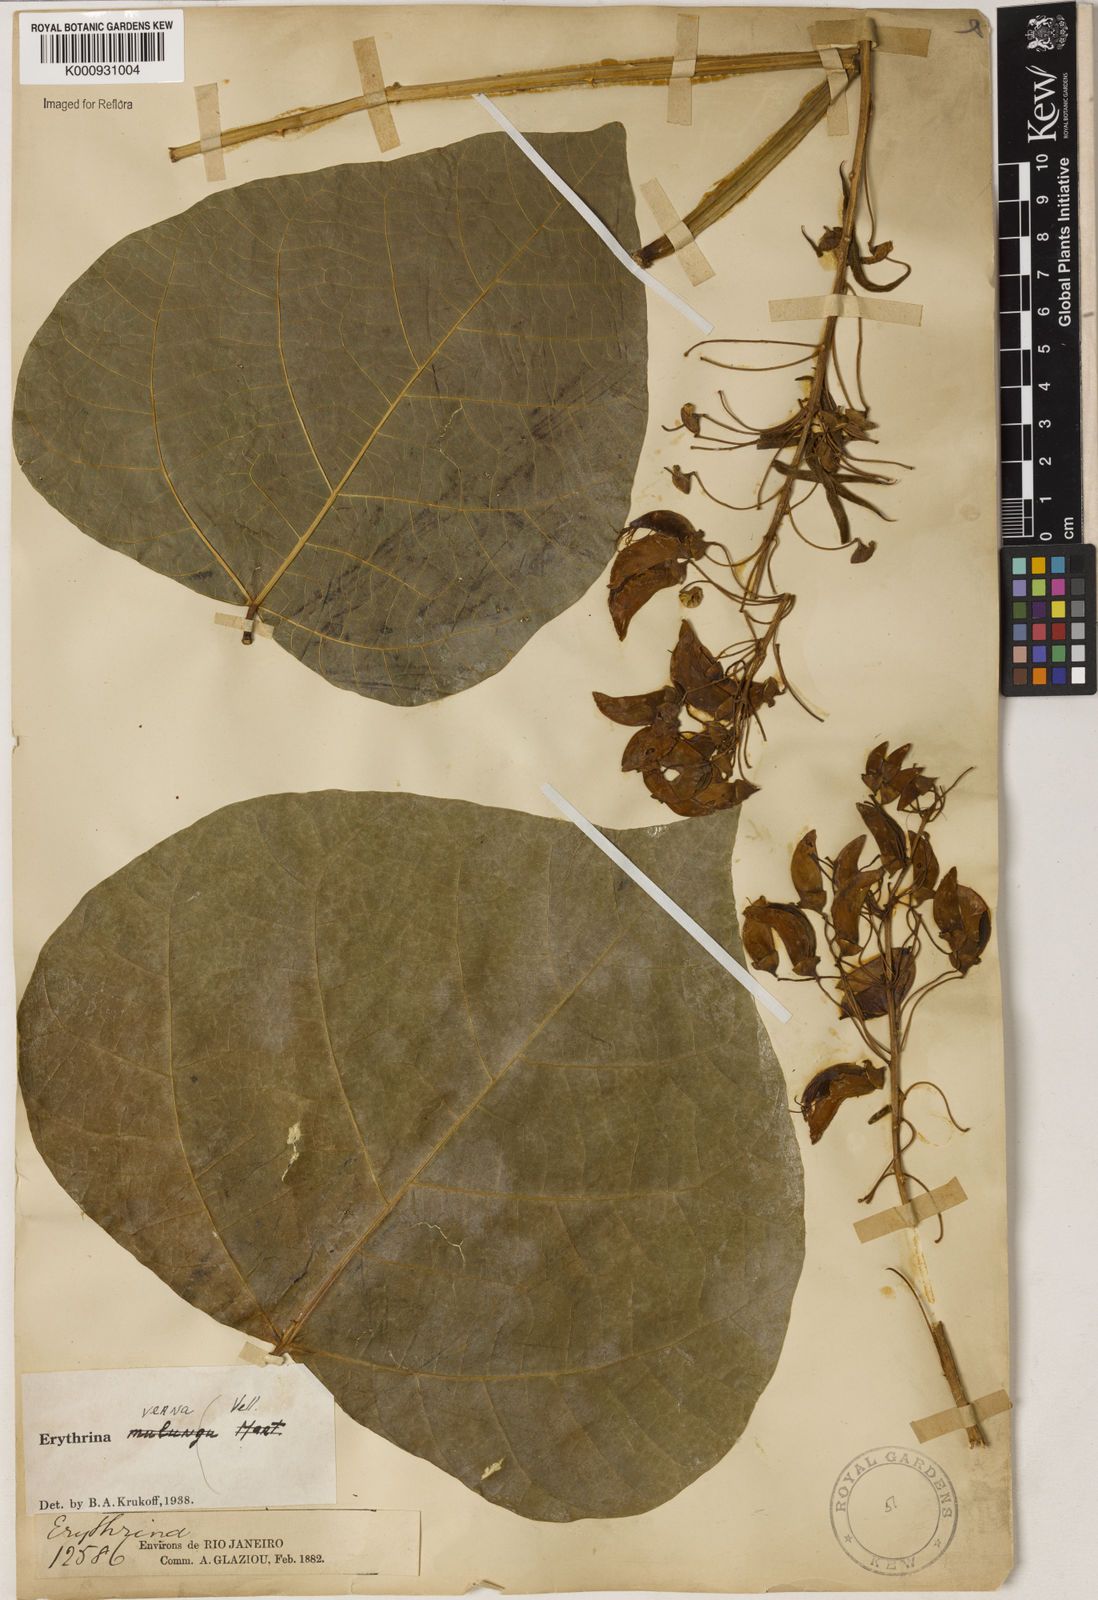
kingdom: Plantae
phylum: Tracheophyta
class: Magnoliopsida
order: Fabales
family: Fabaceae
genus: Erythrina
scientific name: Erythrina verna
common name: Mulungú
